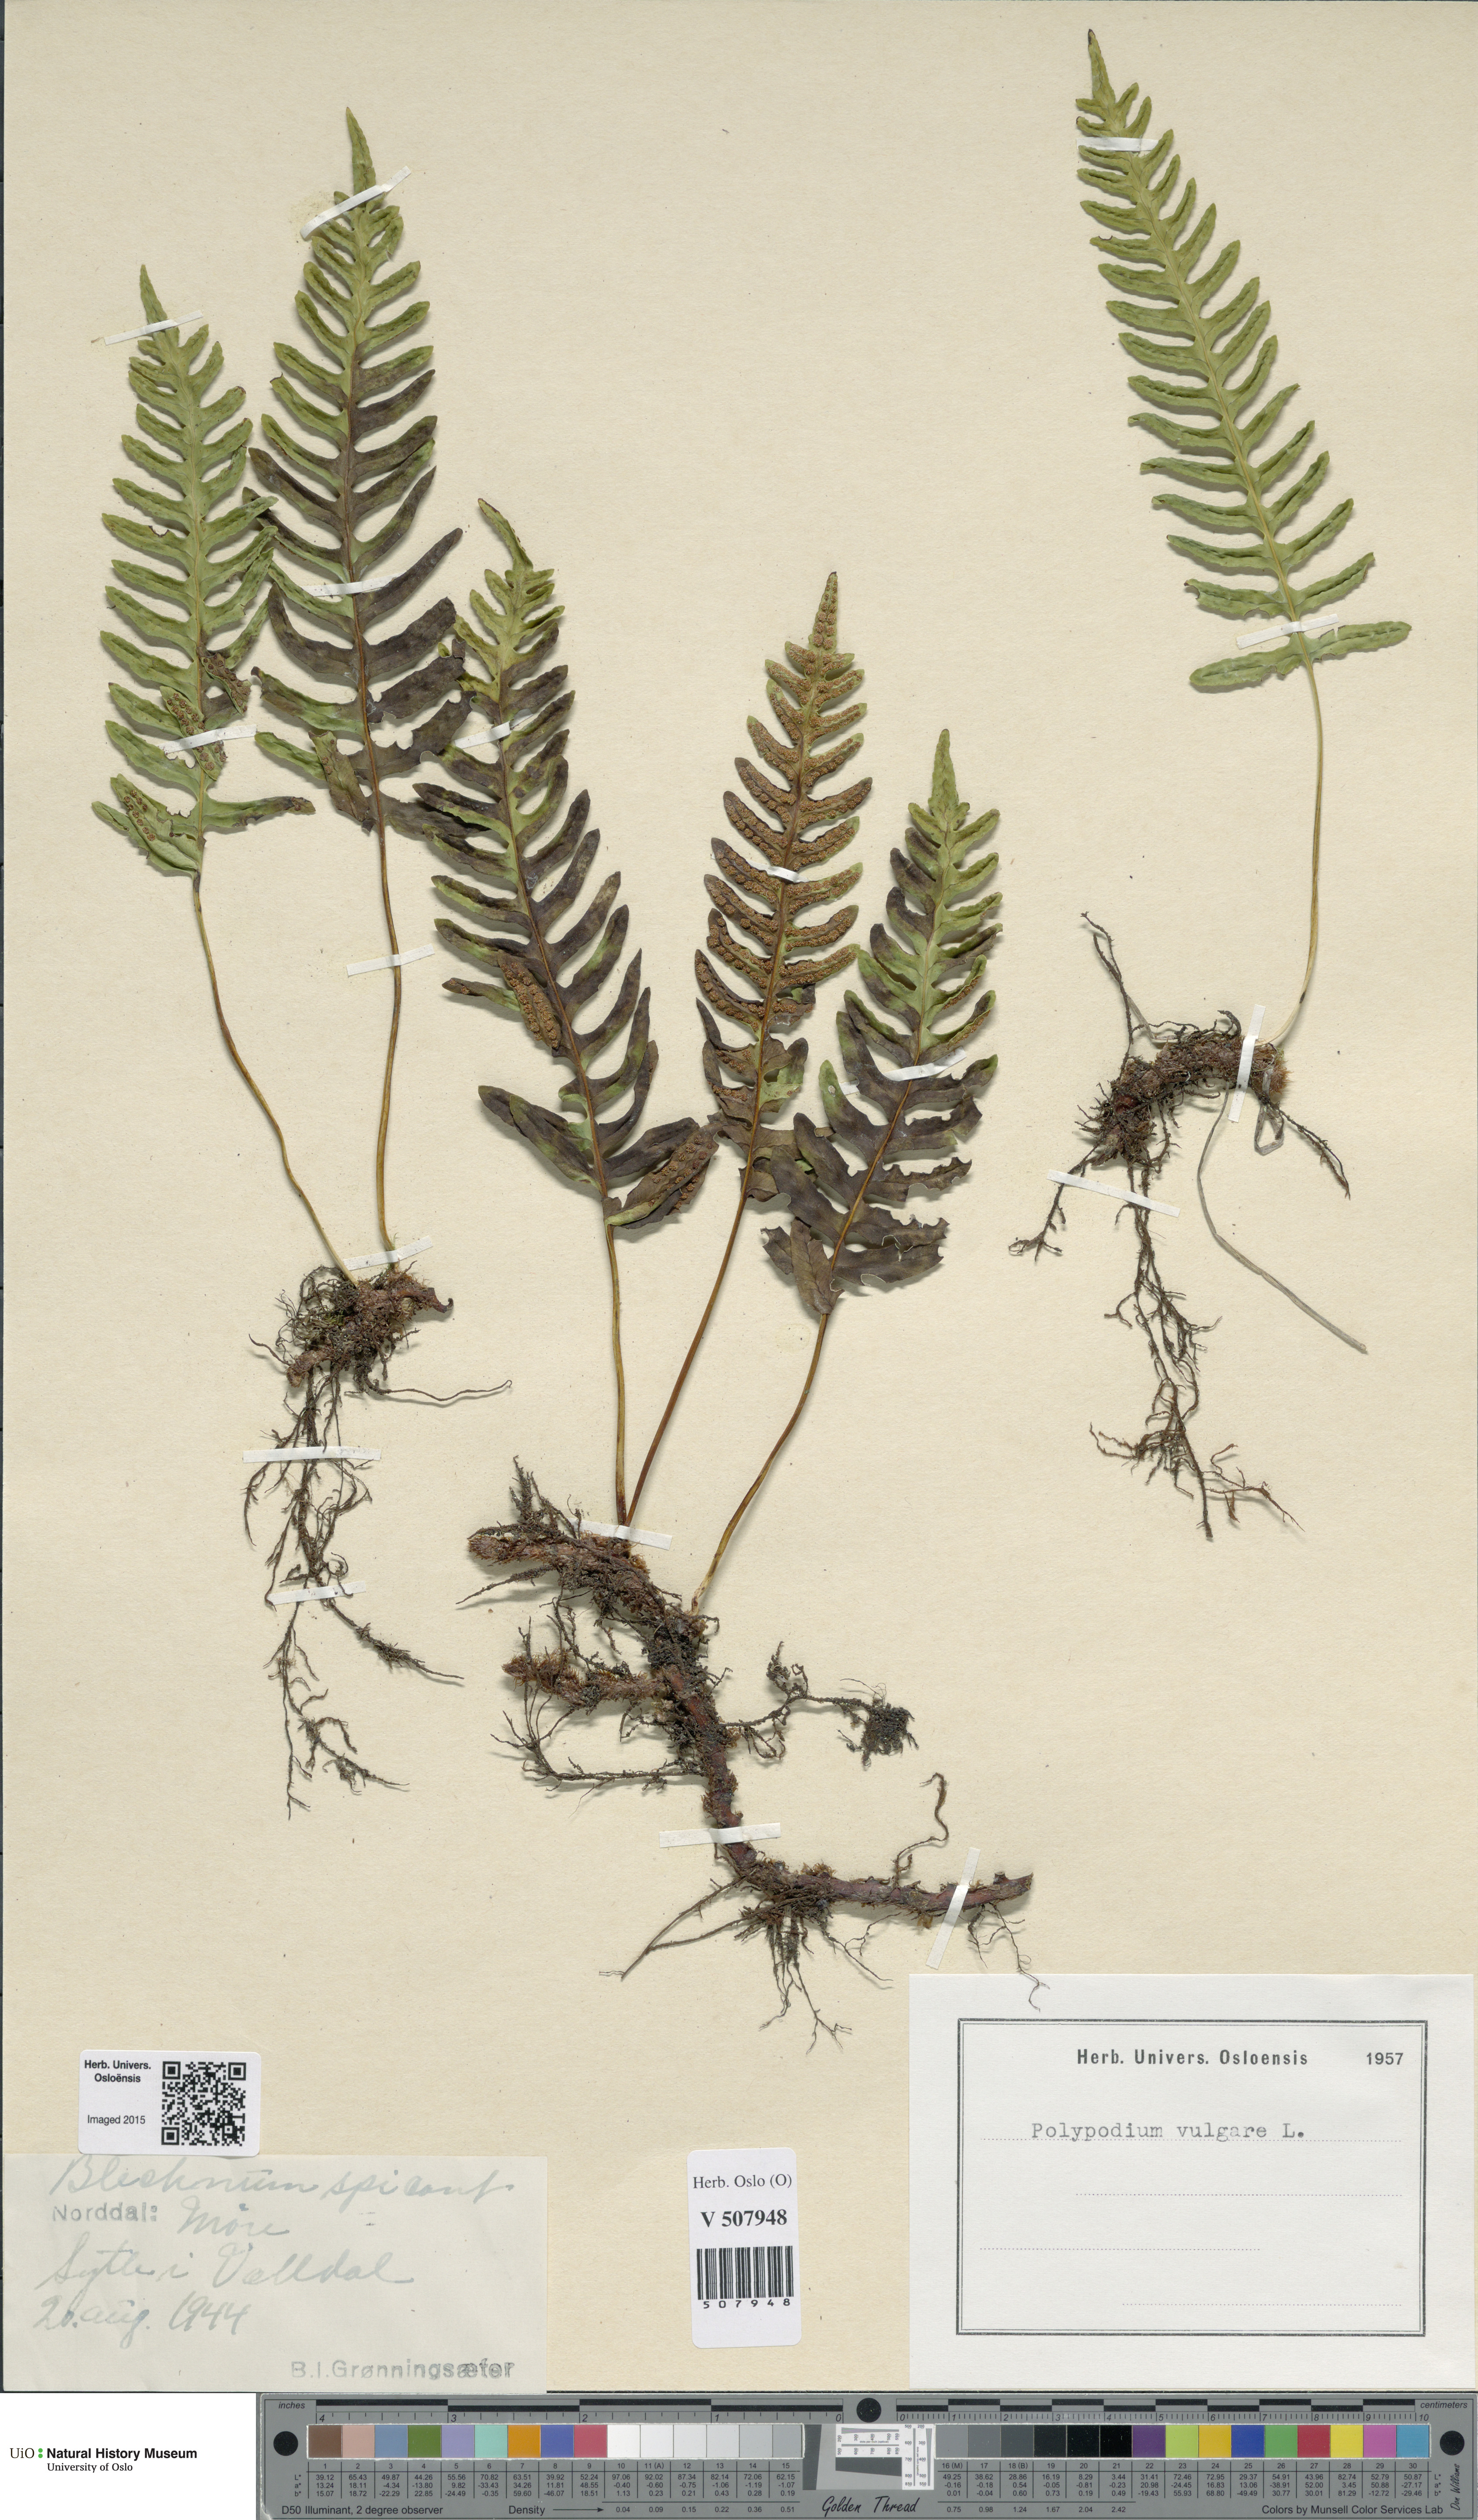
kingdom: Plantae
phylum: Tracheophyta
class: Polypodiopsida
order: Polypodiales
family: Polypodiaceae
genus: Polypodium
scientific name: Polypodium vulgare
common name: Common polypody
